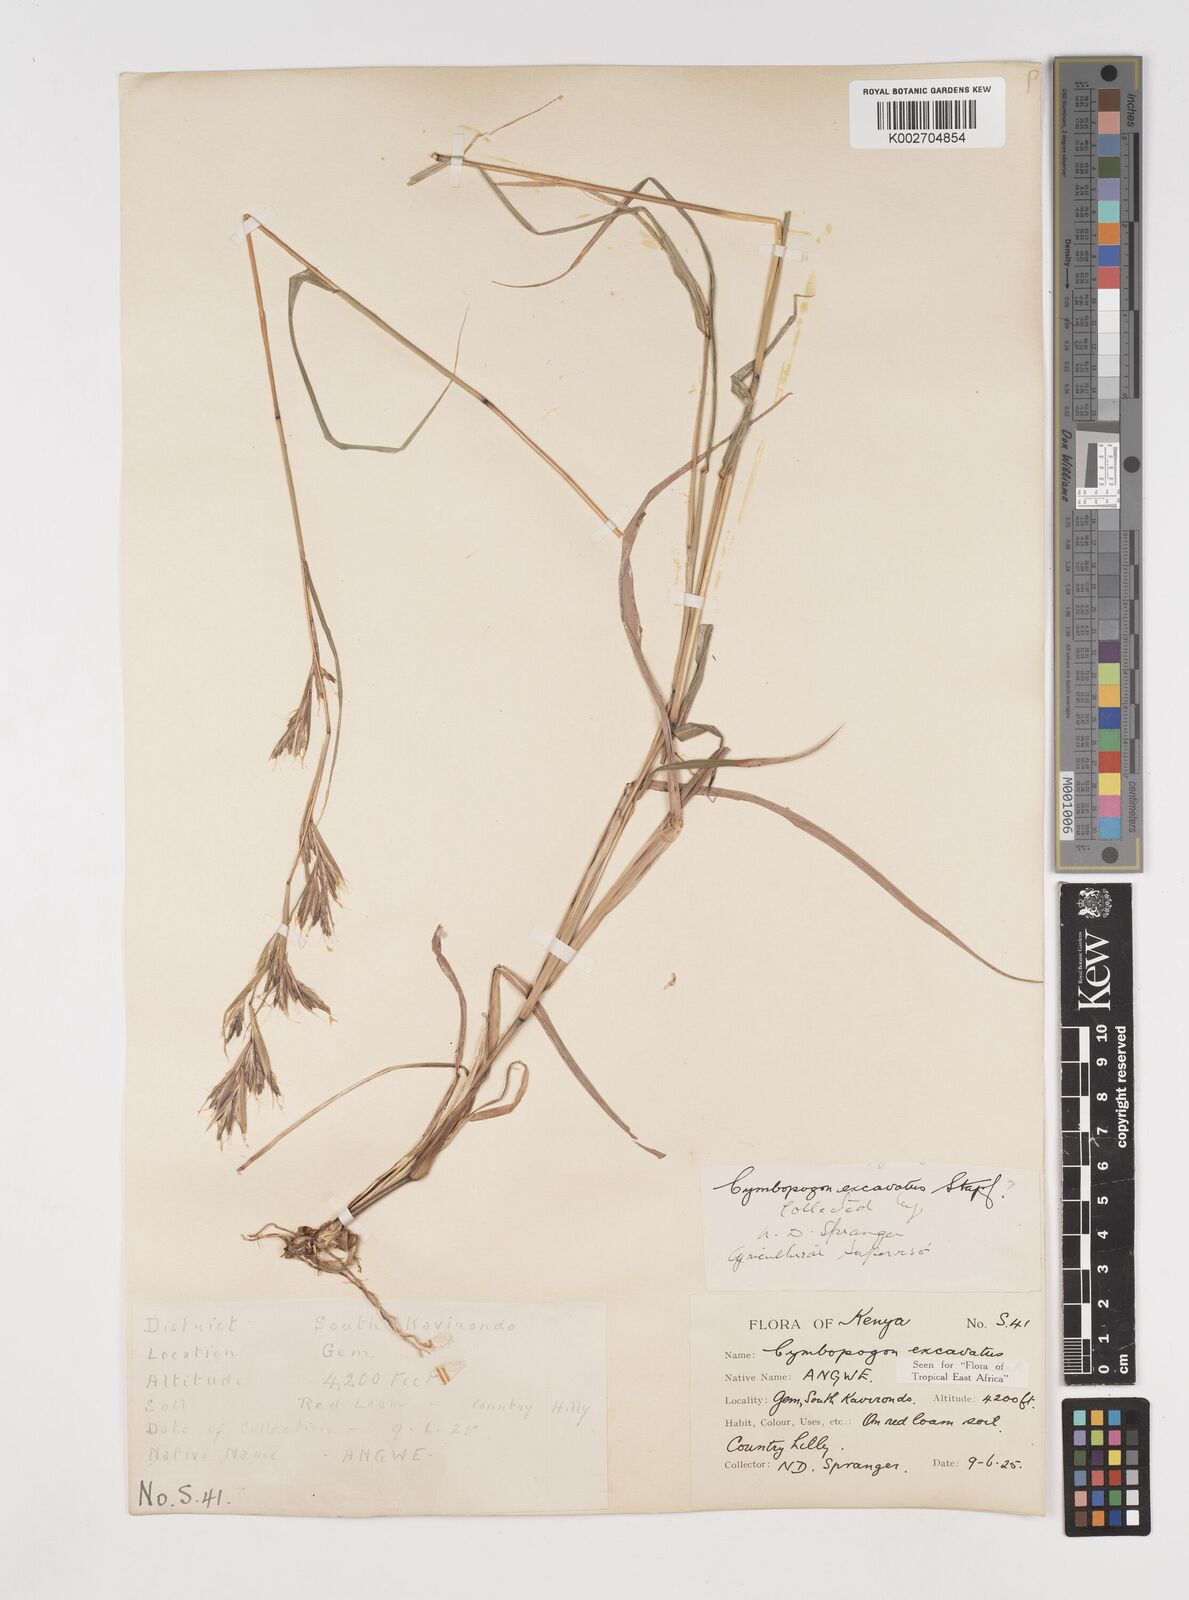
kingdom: Plantae
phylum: Tracheophyta
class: Liliopsida
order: Poales
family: Poaceae
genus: Cymbopogon
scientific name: Cymbopogon caesius
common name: Kachi grass
